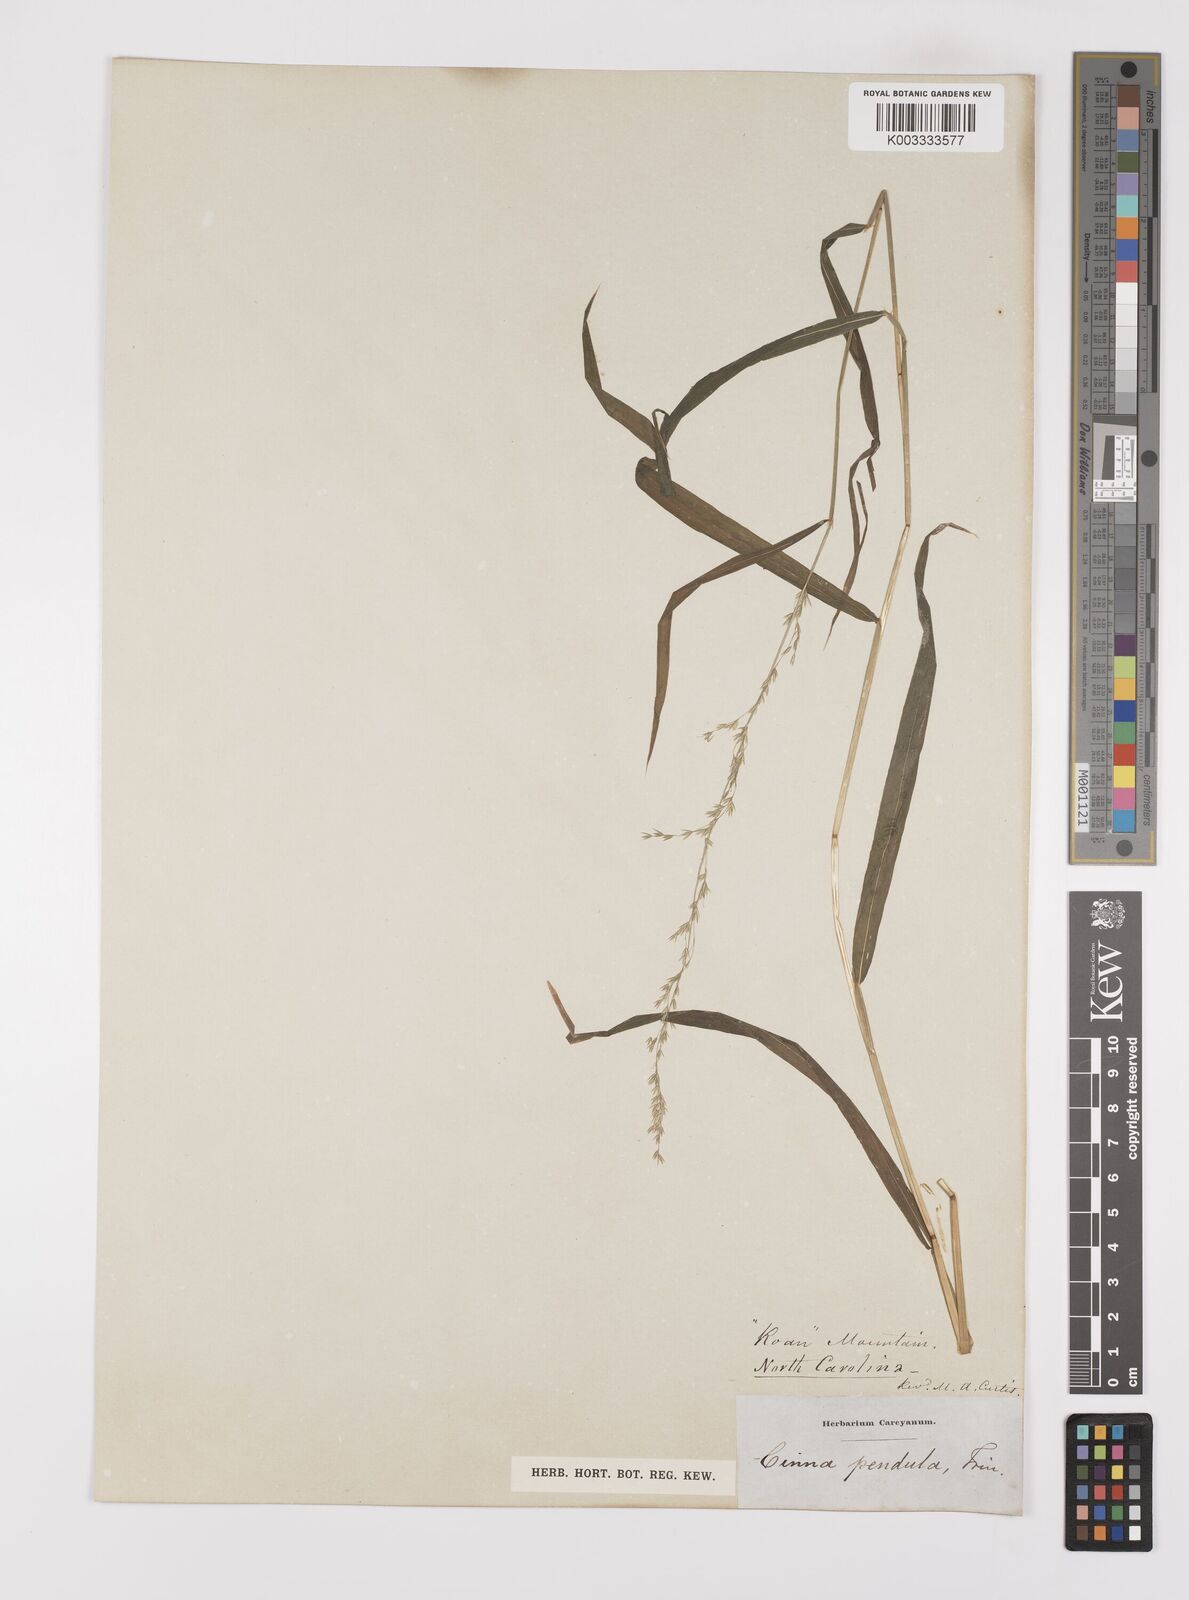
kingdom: Plantae
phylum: Tracheophyta
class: Liliopsida
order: Poales
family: Poaceae
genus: Cinna
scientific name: Cinna latifolia
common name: Drooping woodreed
